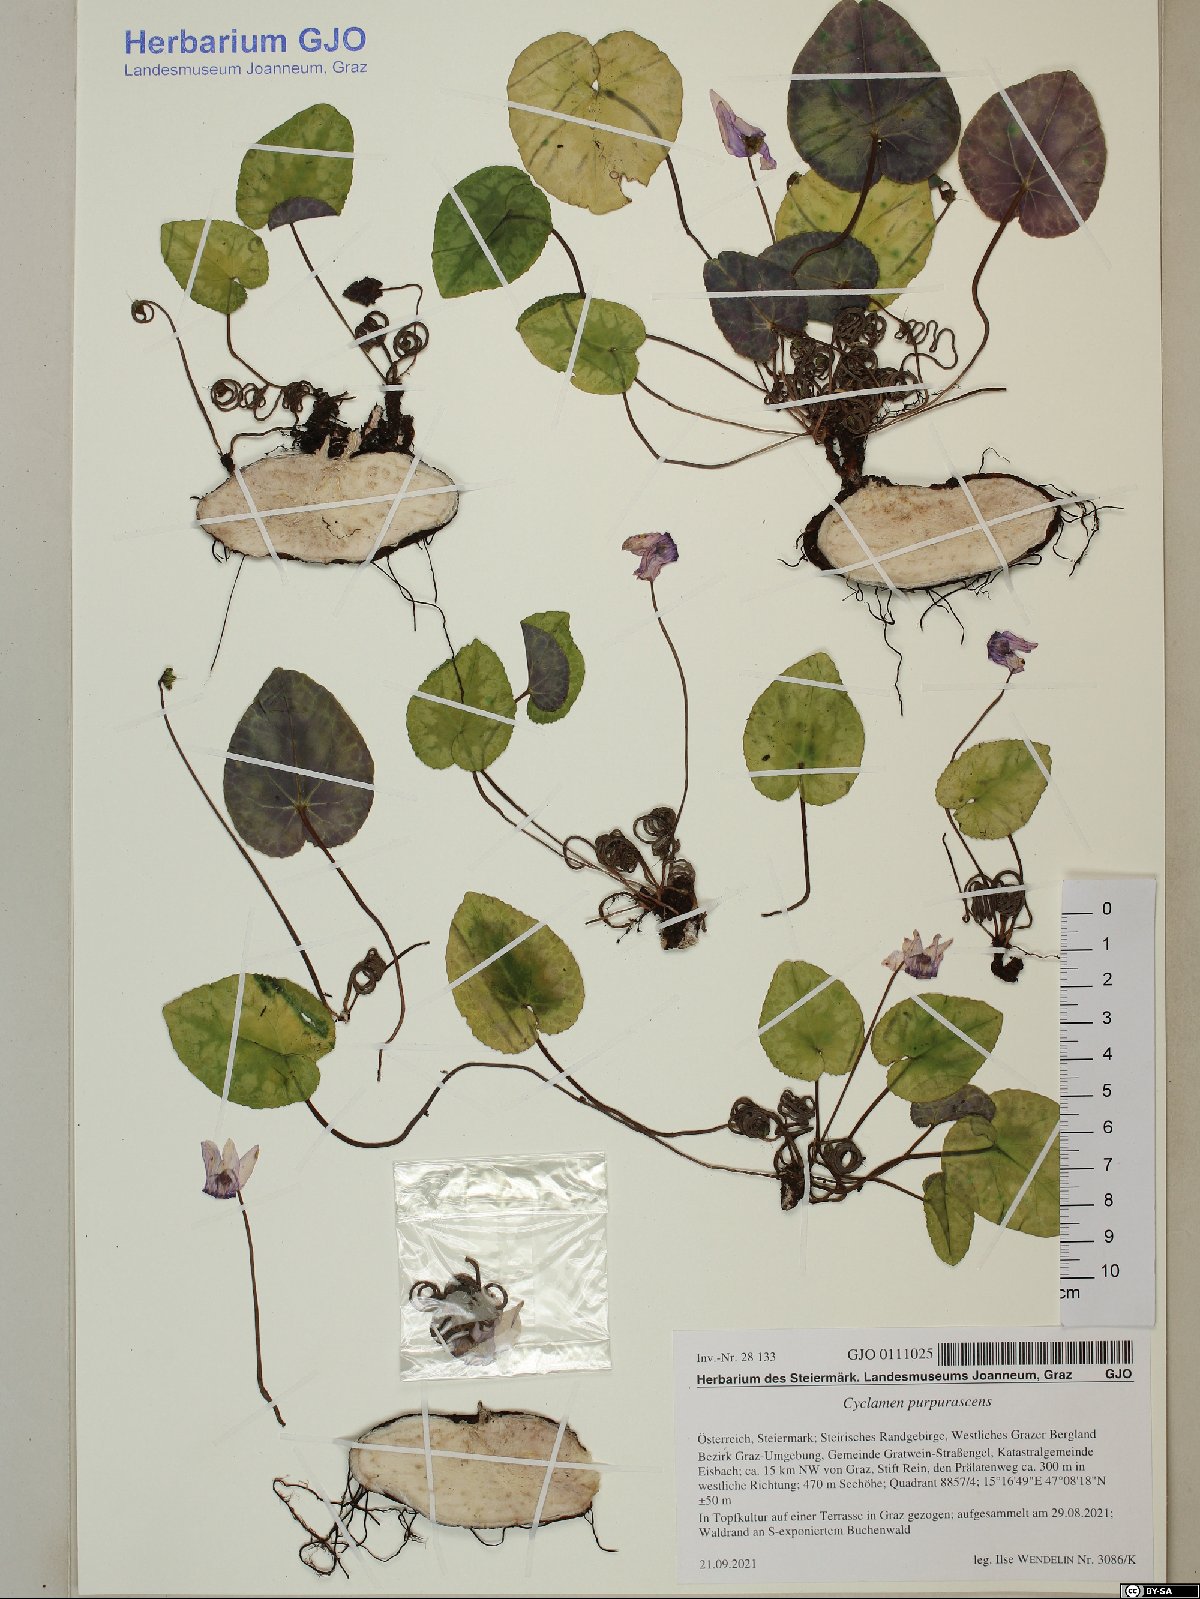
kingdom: Plantae
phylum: Tracheophyta
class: Magnoliopsida
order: Ericales
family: Primulaceae
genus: Cyclamen
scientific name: Cyclamen purpurascens
